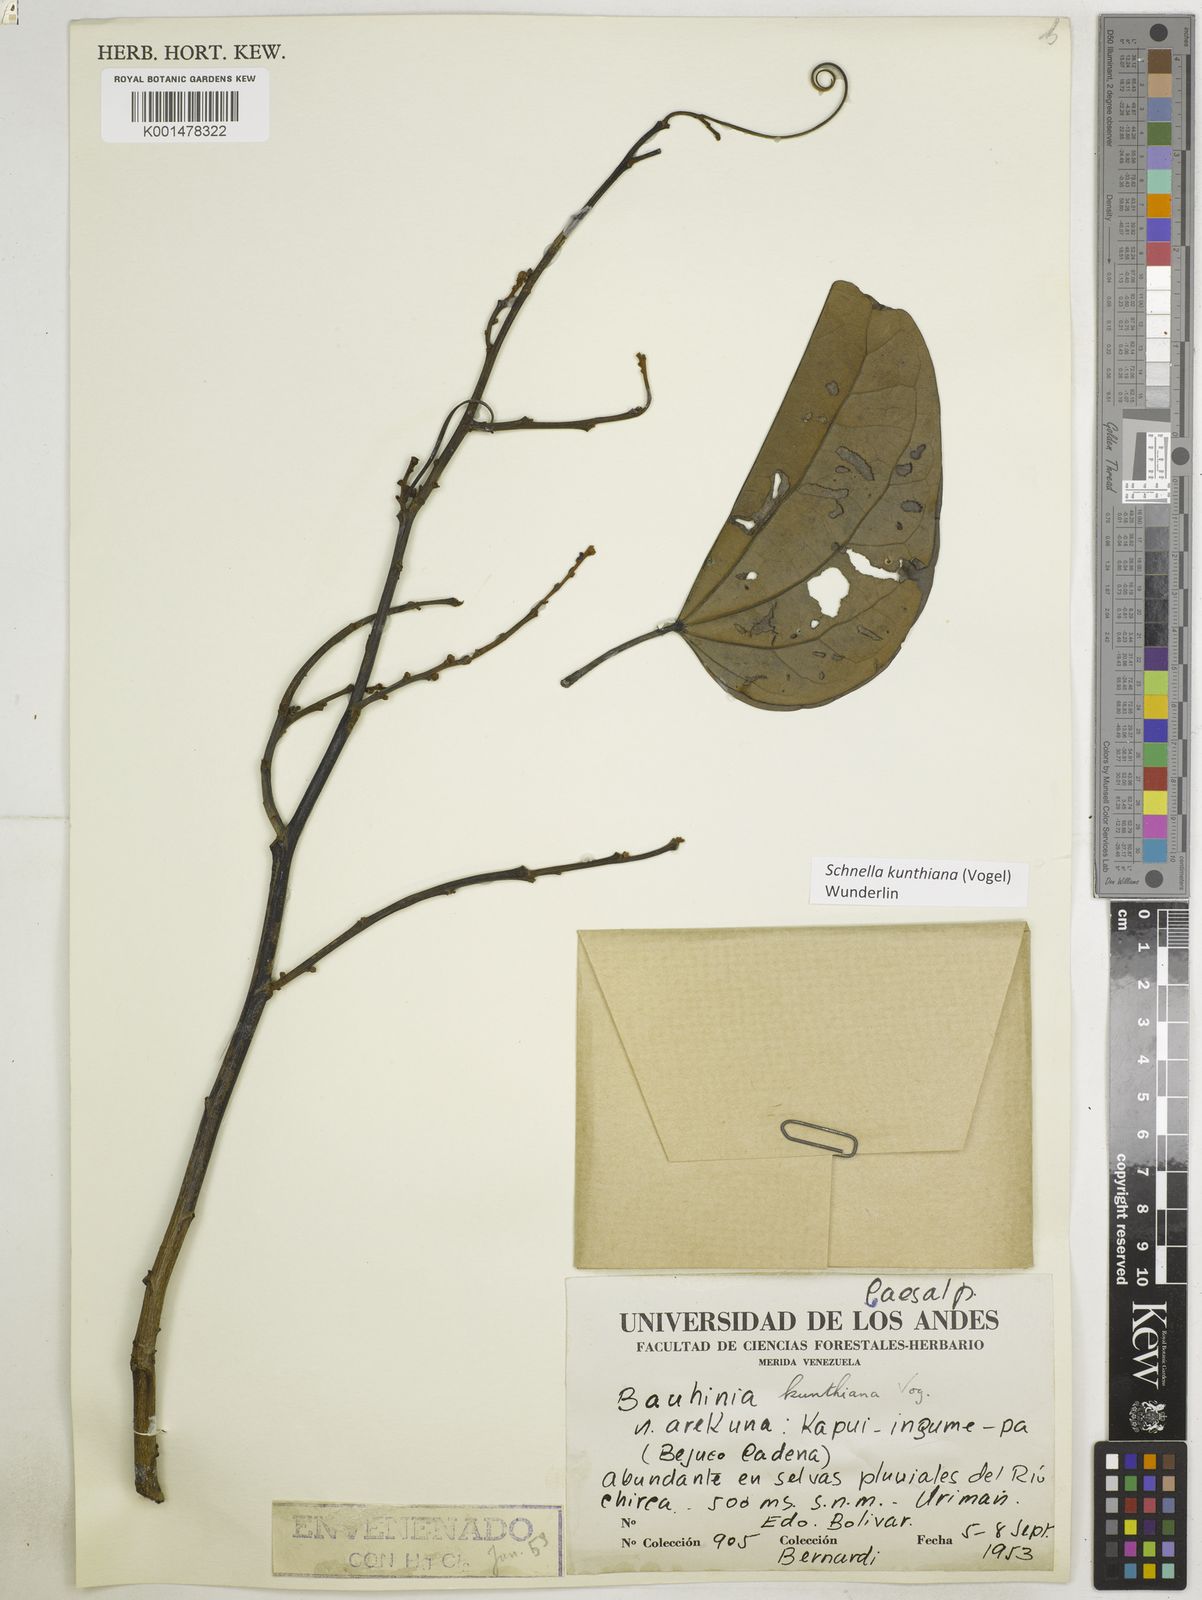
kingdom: Plantae
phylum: Tracheophyta
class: Magnoliopsida
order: Fabales
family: Fabaceae
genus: Schnella
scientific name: Schnella kunthiana
